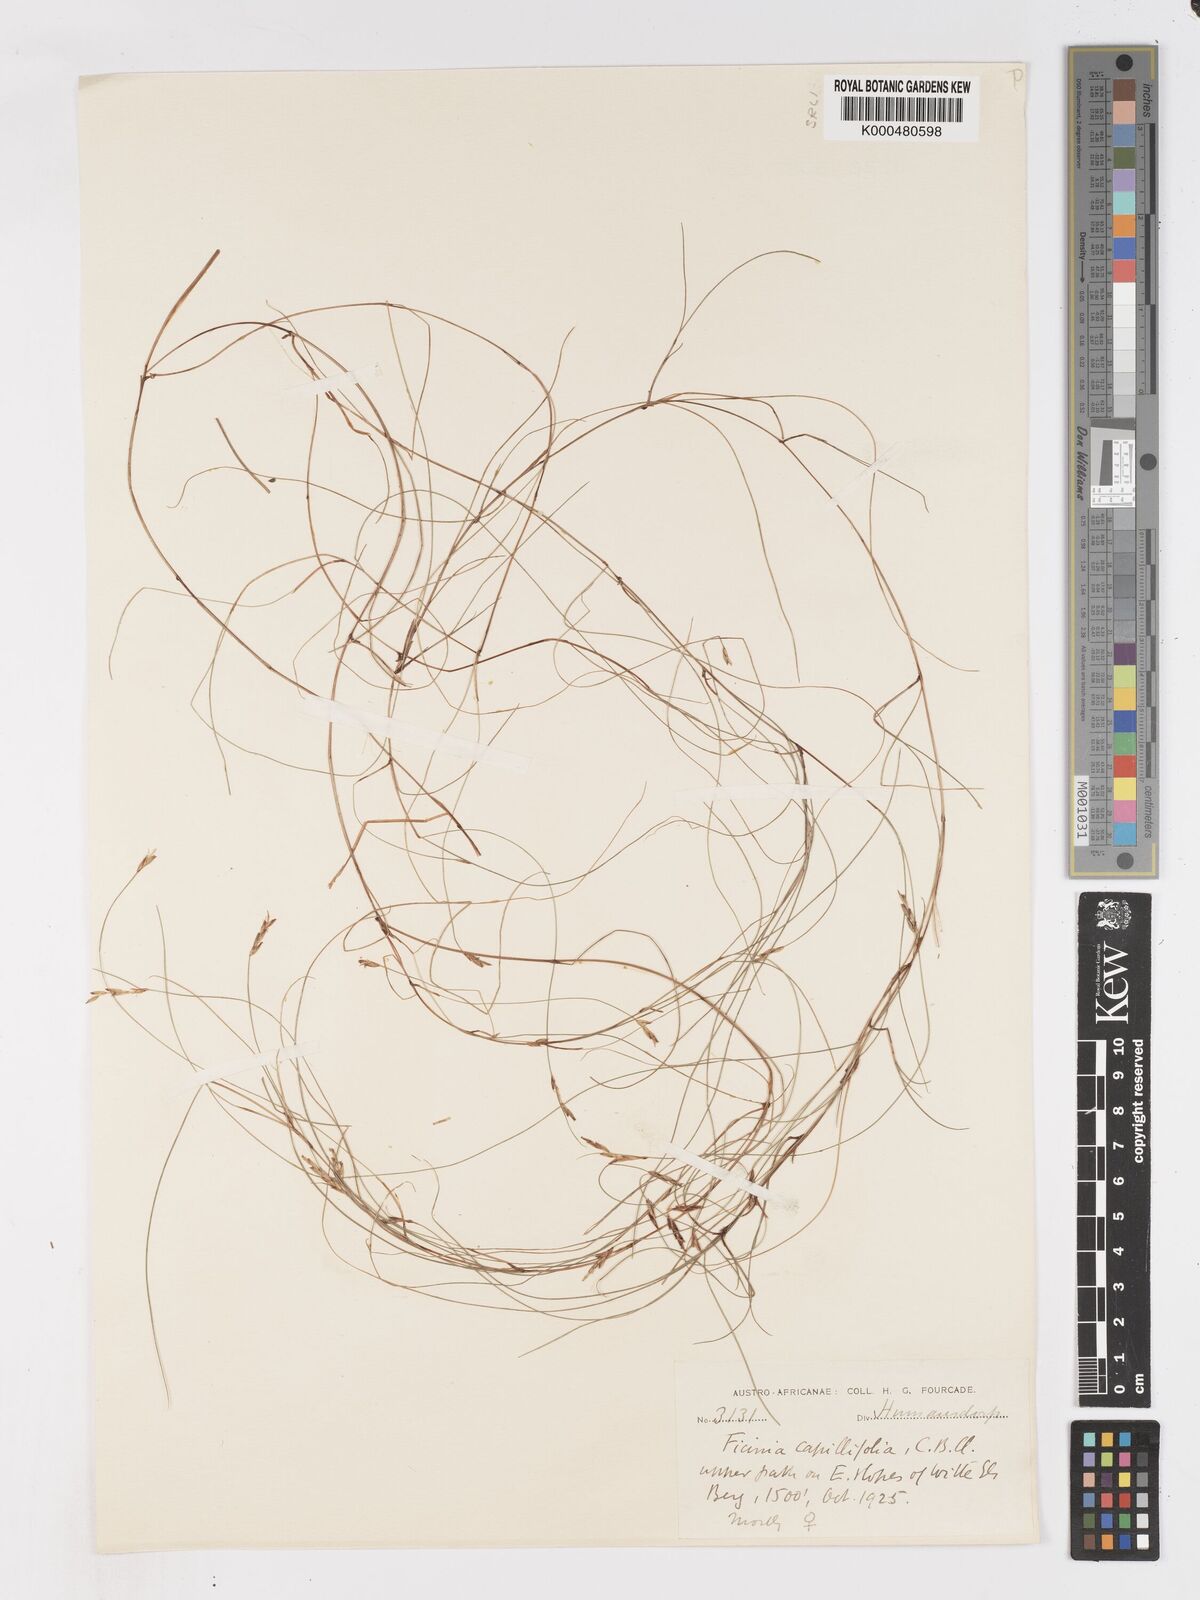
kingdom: Plantae
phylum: Tracheophyta
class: Liliopsida
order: Poales
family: Cyperaceae
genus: Ficinia
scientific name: Ficinia capillifolia
